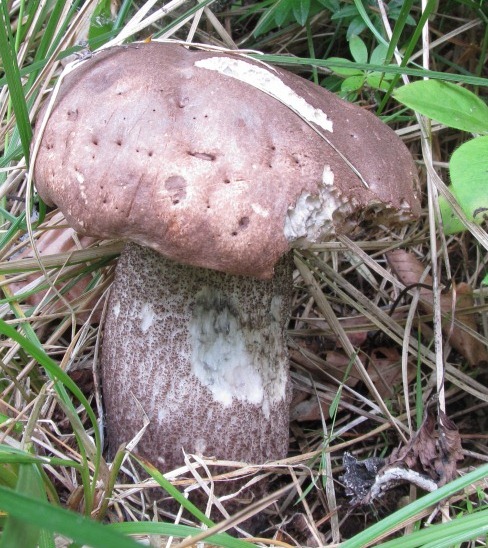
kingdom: Fungi
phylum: Basidiomycota
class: Agaricomycetes
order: Boletales
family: Boletaceae
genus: Leccinum
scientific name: Leccinum duriusculum
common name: poppel-skælrørhat
